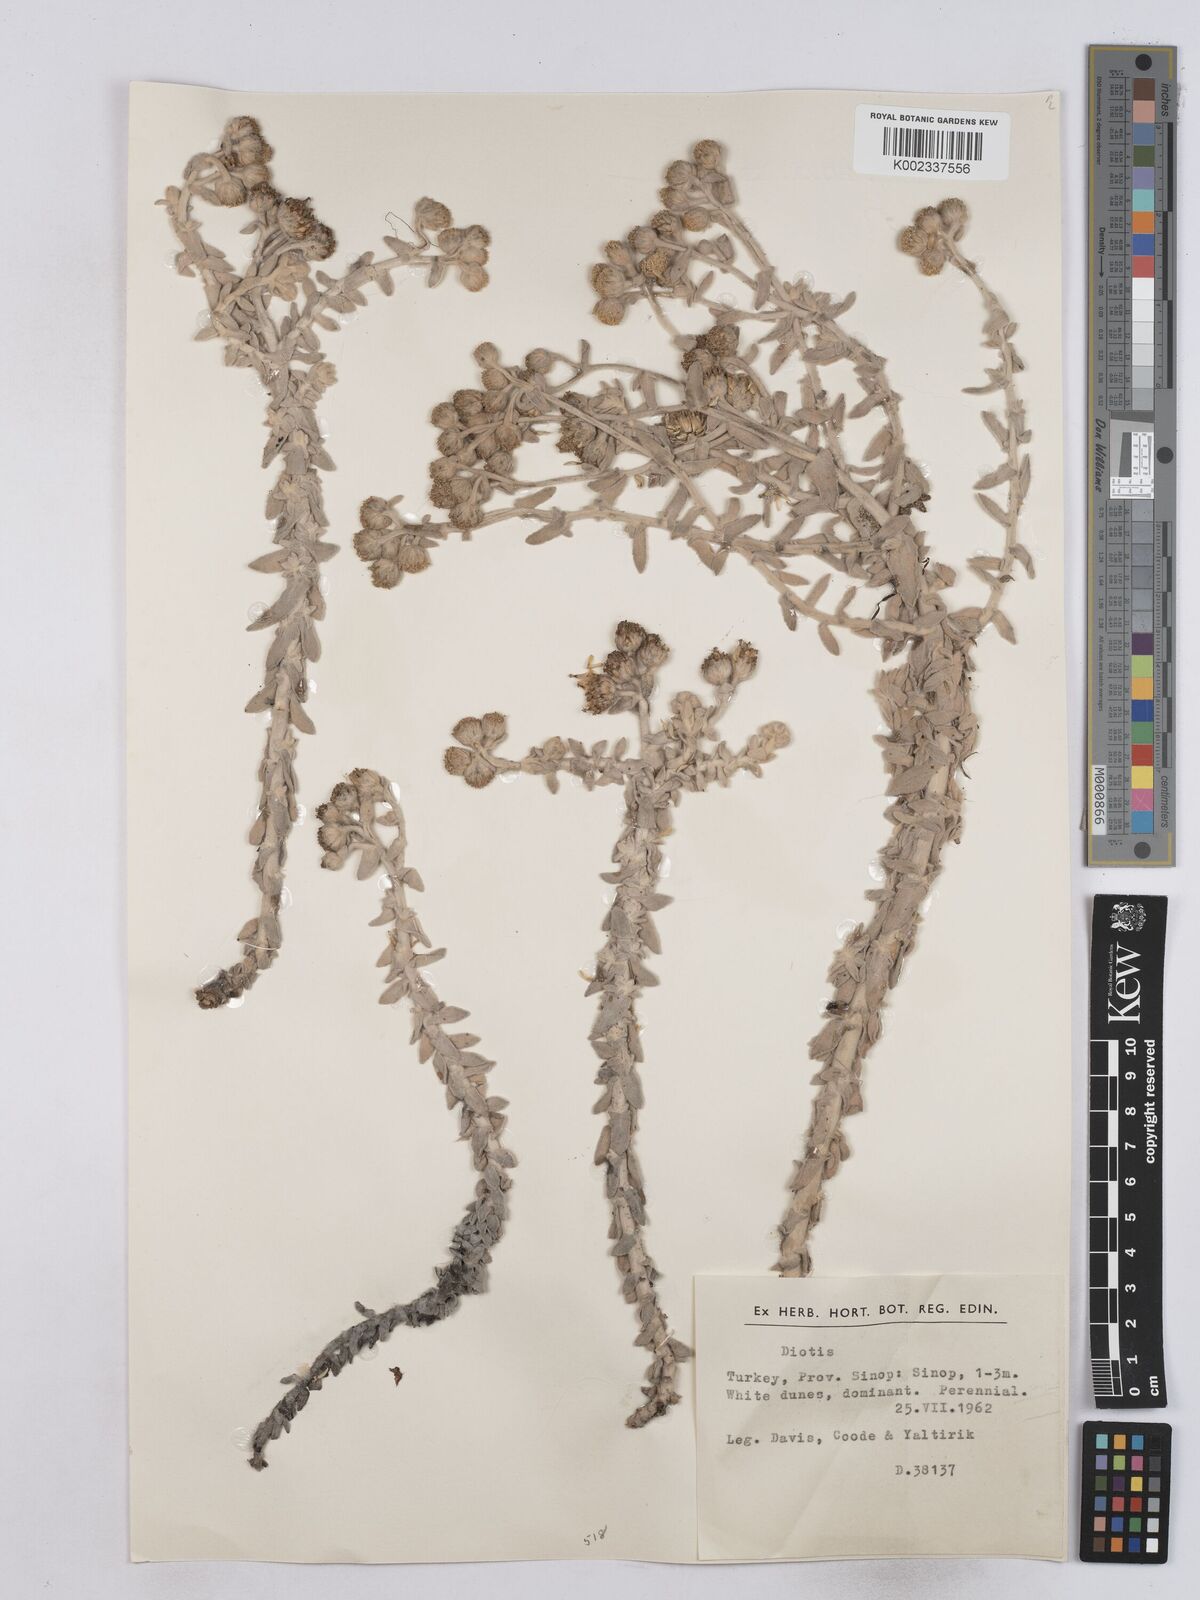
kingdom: Plantae
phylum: Tracheophyta
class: Magnoliopsida
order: Asterales
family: Asteraceae
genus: Achillea
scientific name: Achillea maritima
